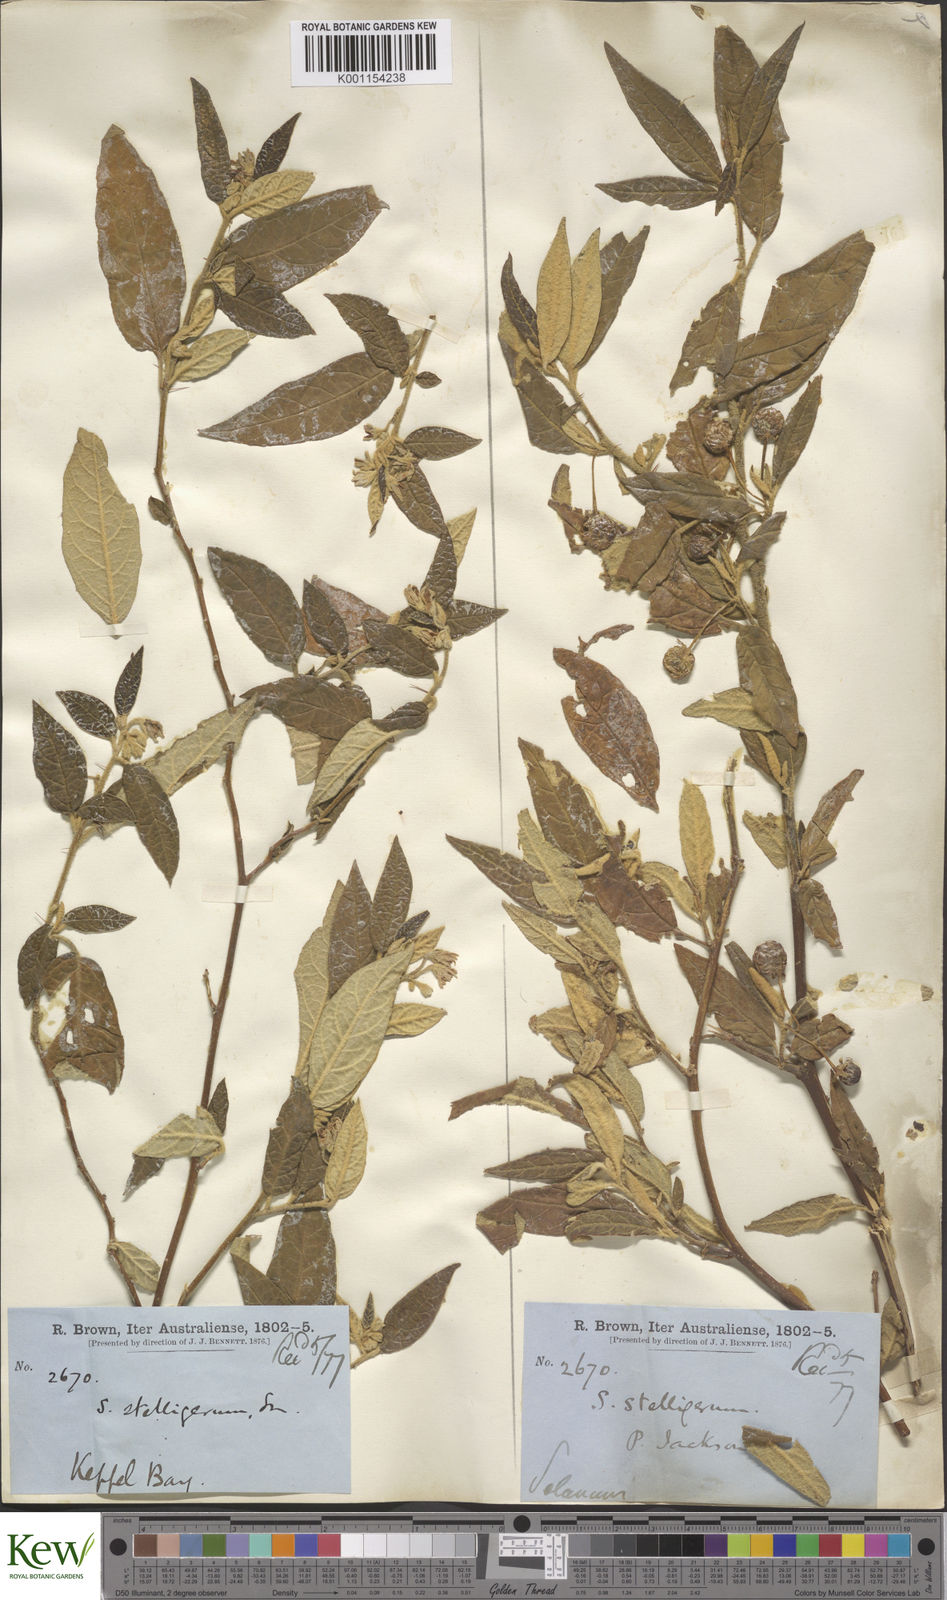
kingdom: Plantae
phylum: Tracheophyta
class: Magnoliopsida
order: Solanales
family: Solanaceae
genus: Solanum
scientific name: Solanum stelligerum
